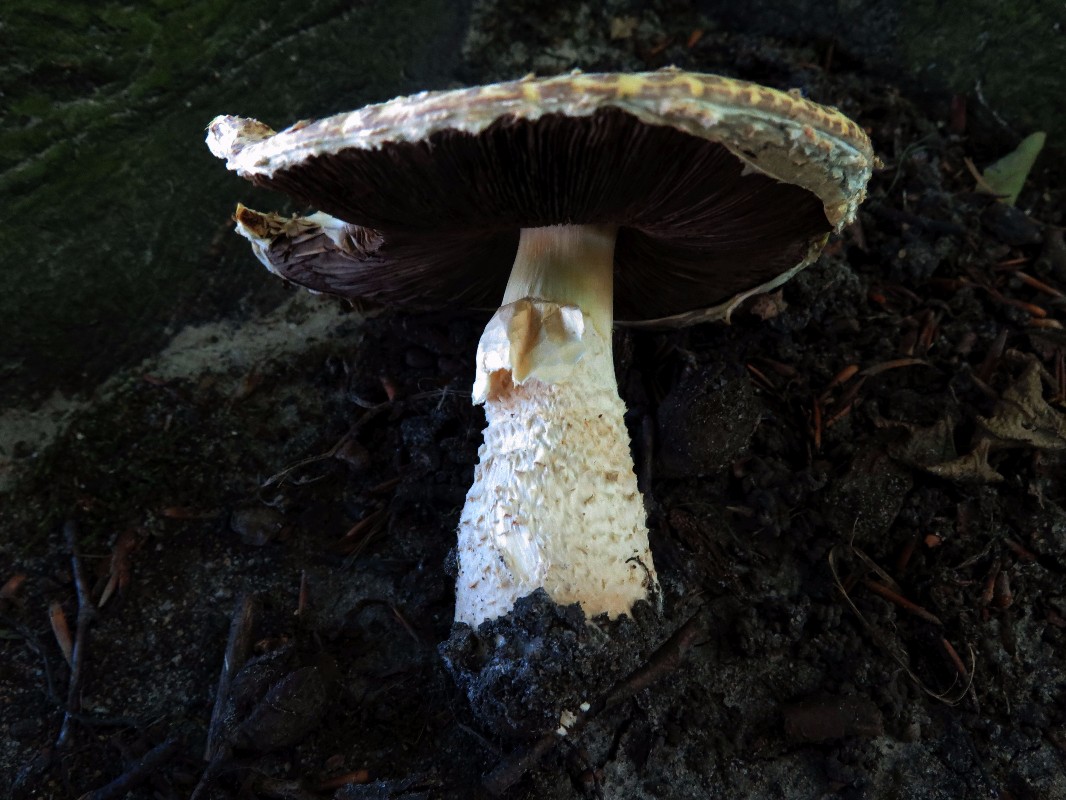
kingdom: Fungi
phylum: Basidiomycota
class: Agaricomycetes
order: Agaricales
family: Agaricaceae
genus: Agaricus
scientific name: Agaricus augustus
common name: prægtig champignon
